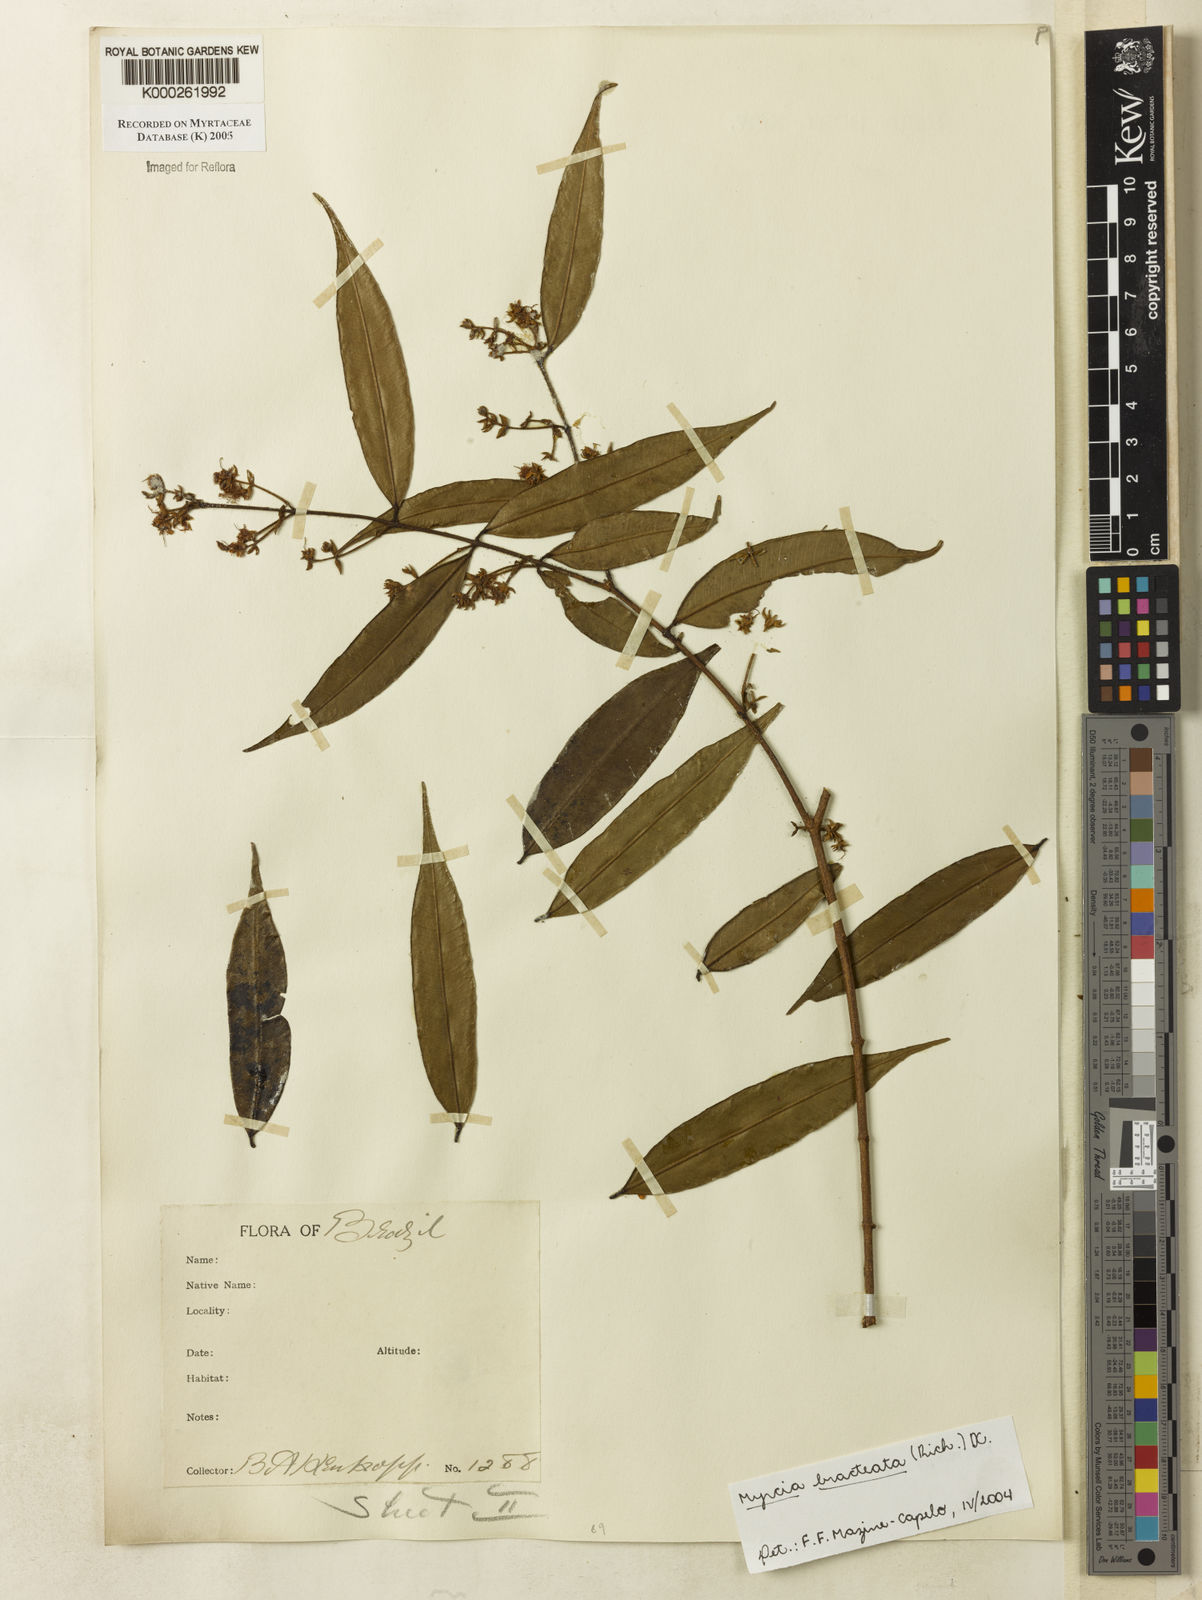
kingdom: Plantae
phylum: Tracheophyta
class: Magnoliopsida
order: Myrtales
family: Myrtaceae
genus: Myrcia
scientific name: Myrcia bracteata
